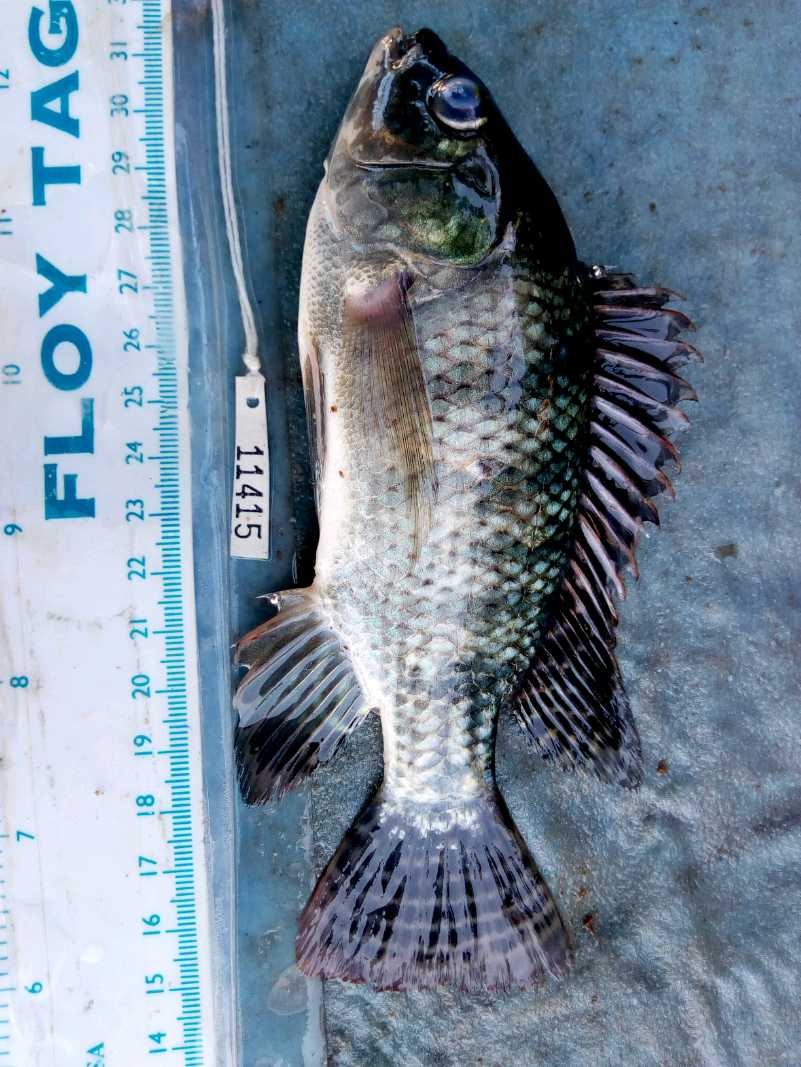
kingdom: Animalia
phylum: Chordata
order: Perciformes
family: Cichlidae
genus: Oreochromis
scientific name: Oreochromis niloticus
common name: Nile tilapia
